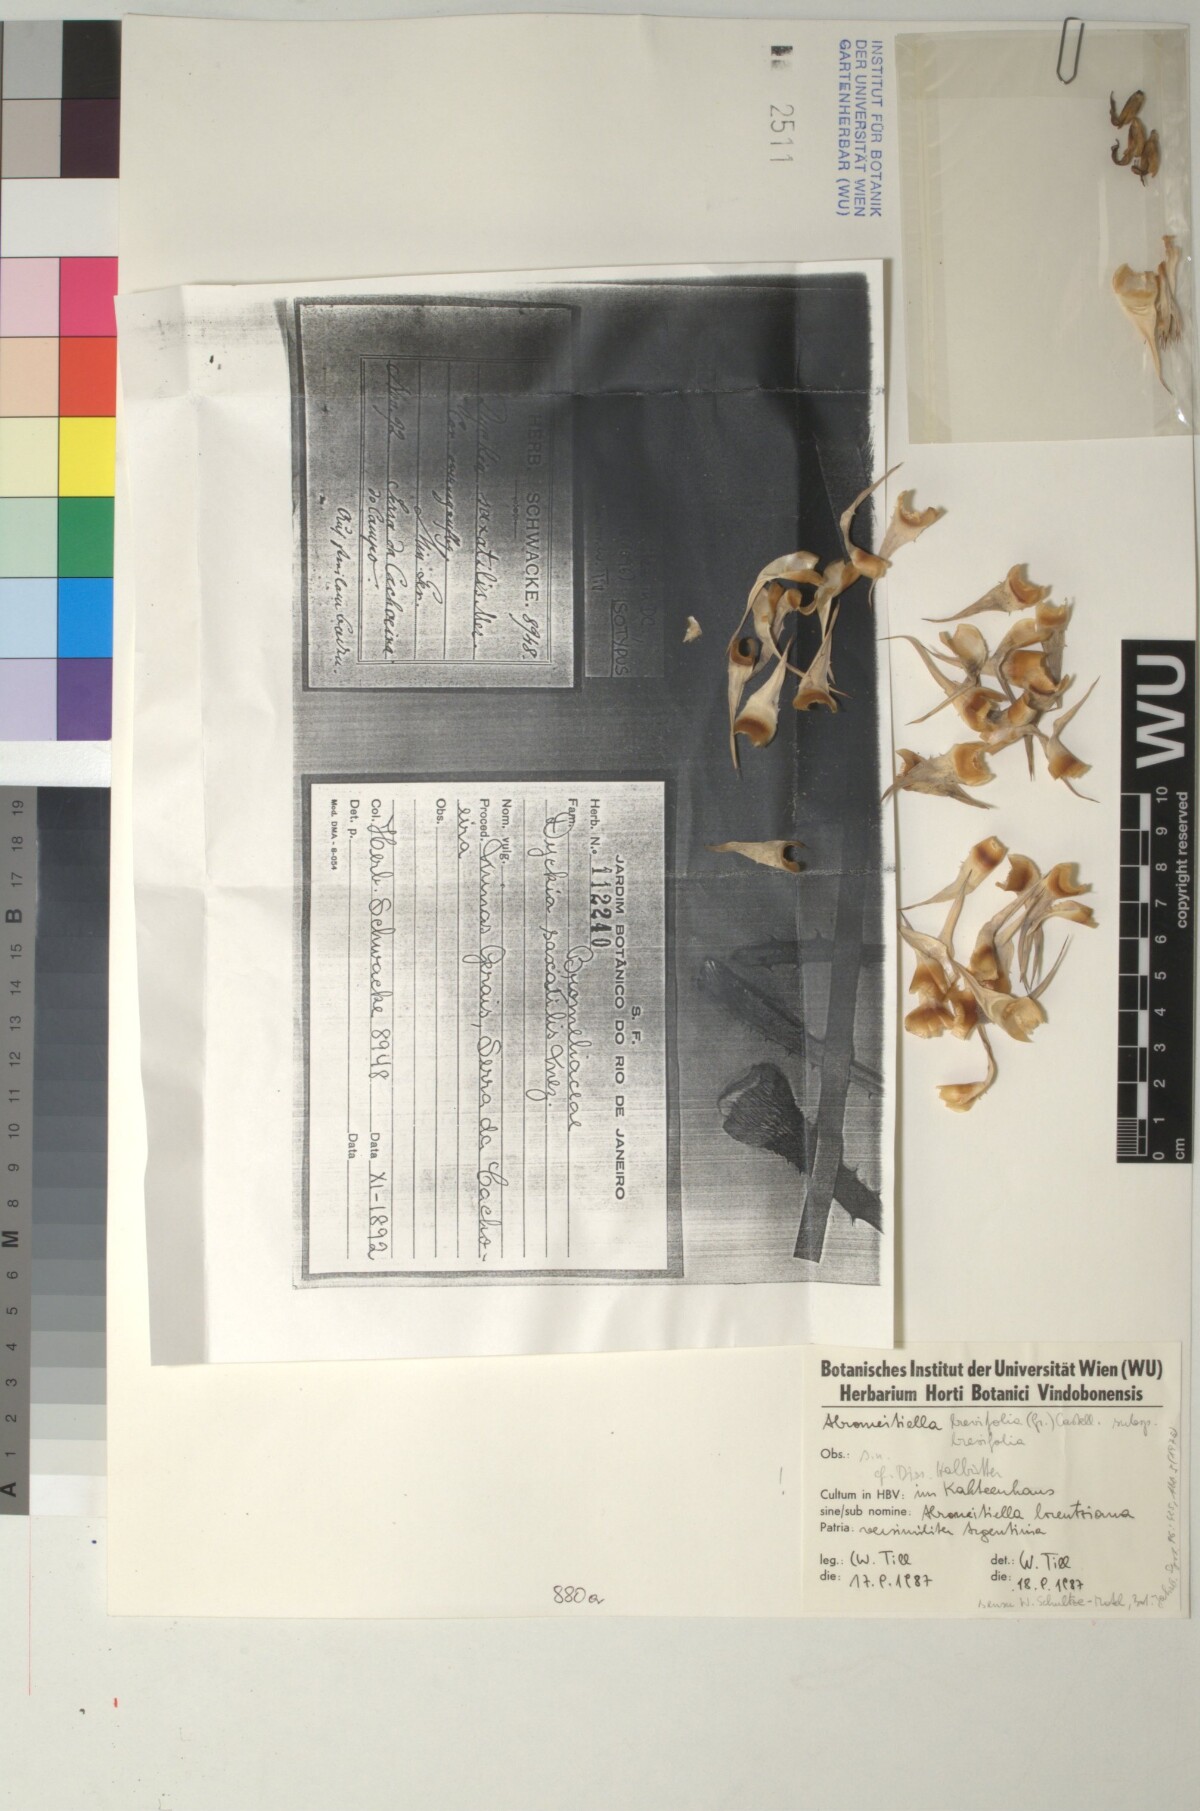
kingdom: Plantae
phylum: Tracheophyta
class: Liliopsida
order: Poales
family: Bromeliaceae
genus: Dyckia
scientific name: Dyckia saxatilis
